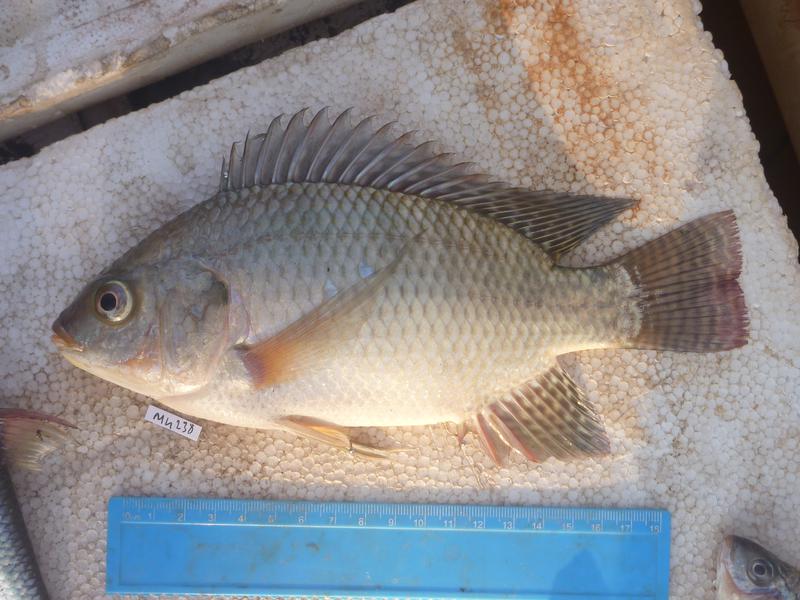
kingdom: Animalia
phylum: Chordata
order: Perciformes
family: Cichlidae
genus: Oreochromis
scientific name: Oreochromis niloticus
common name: Nile tilapia
